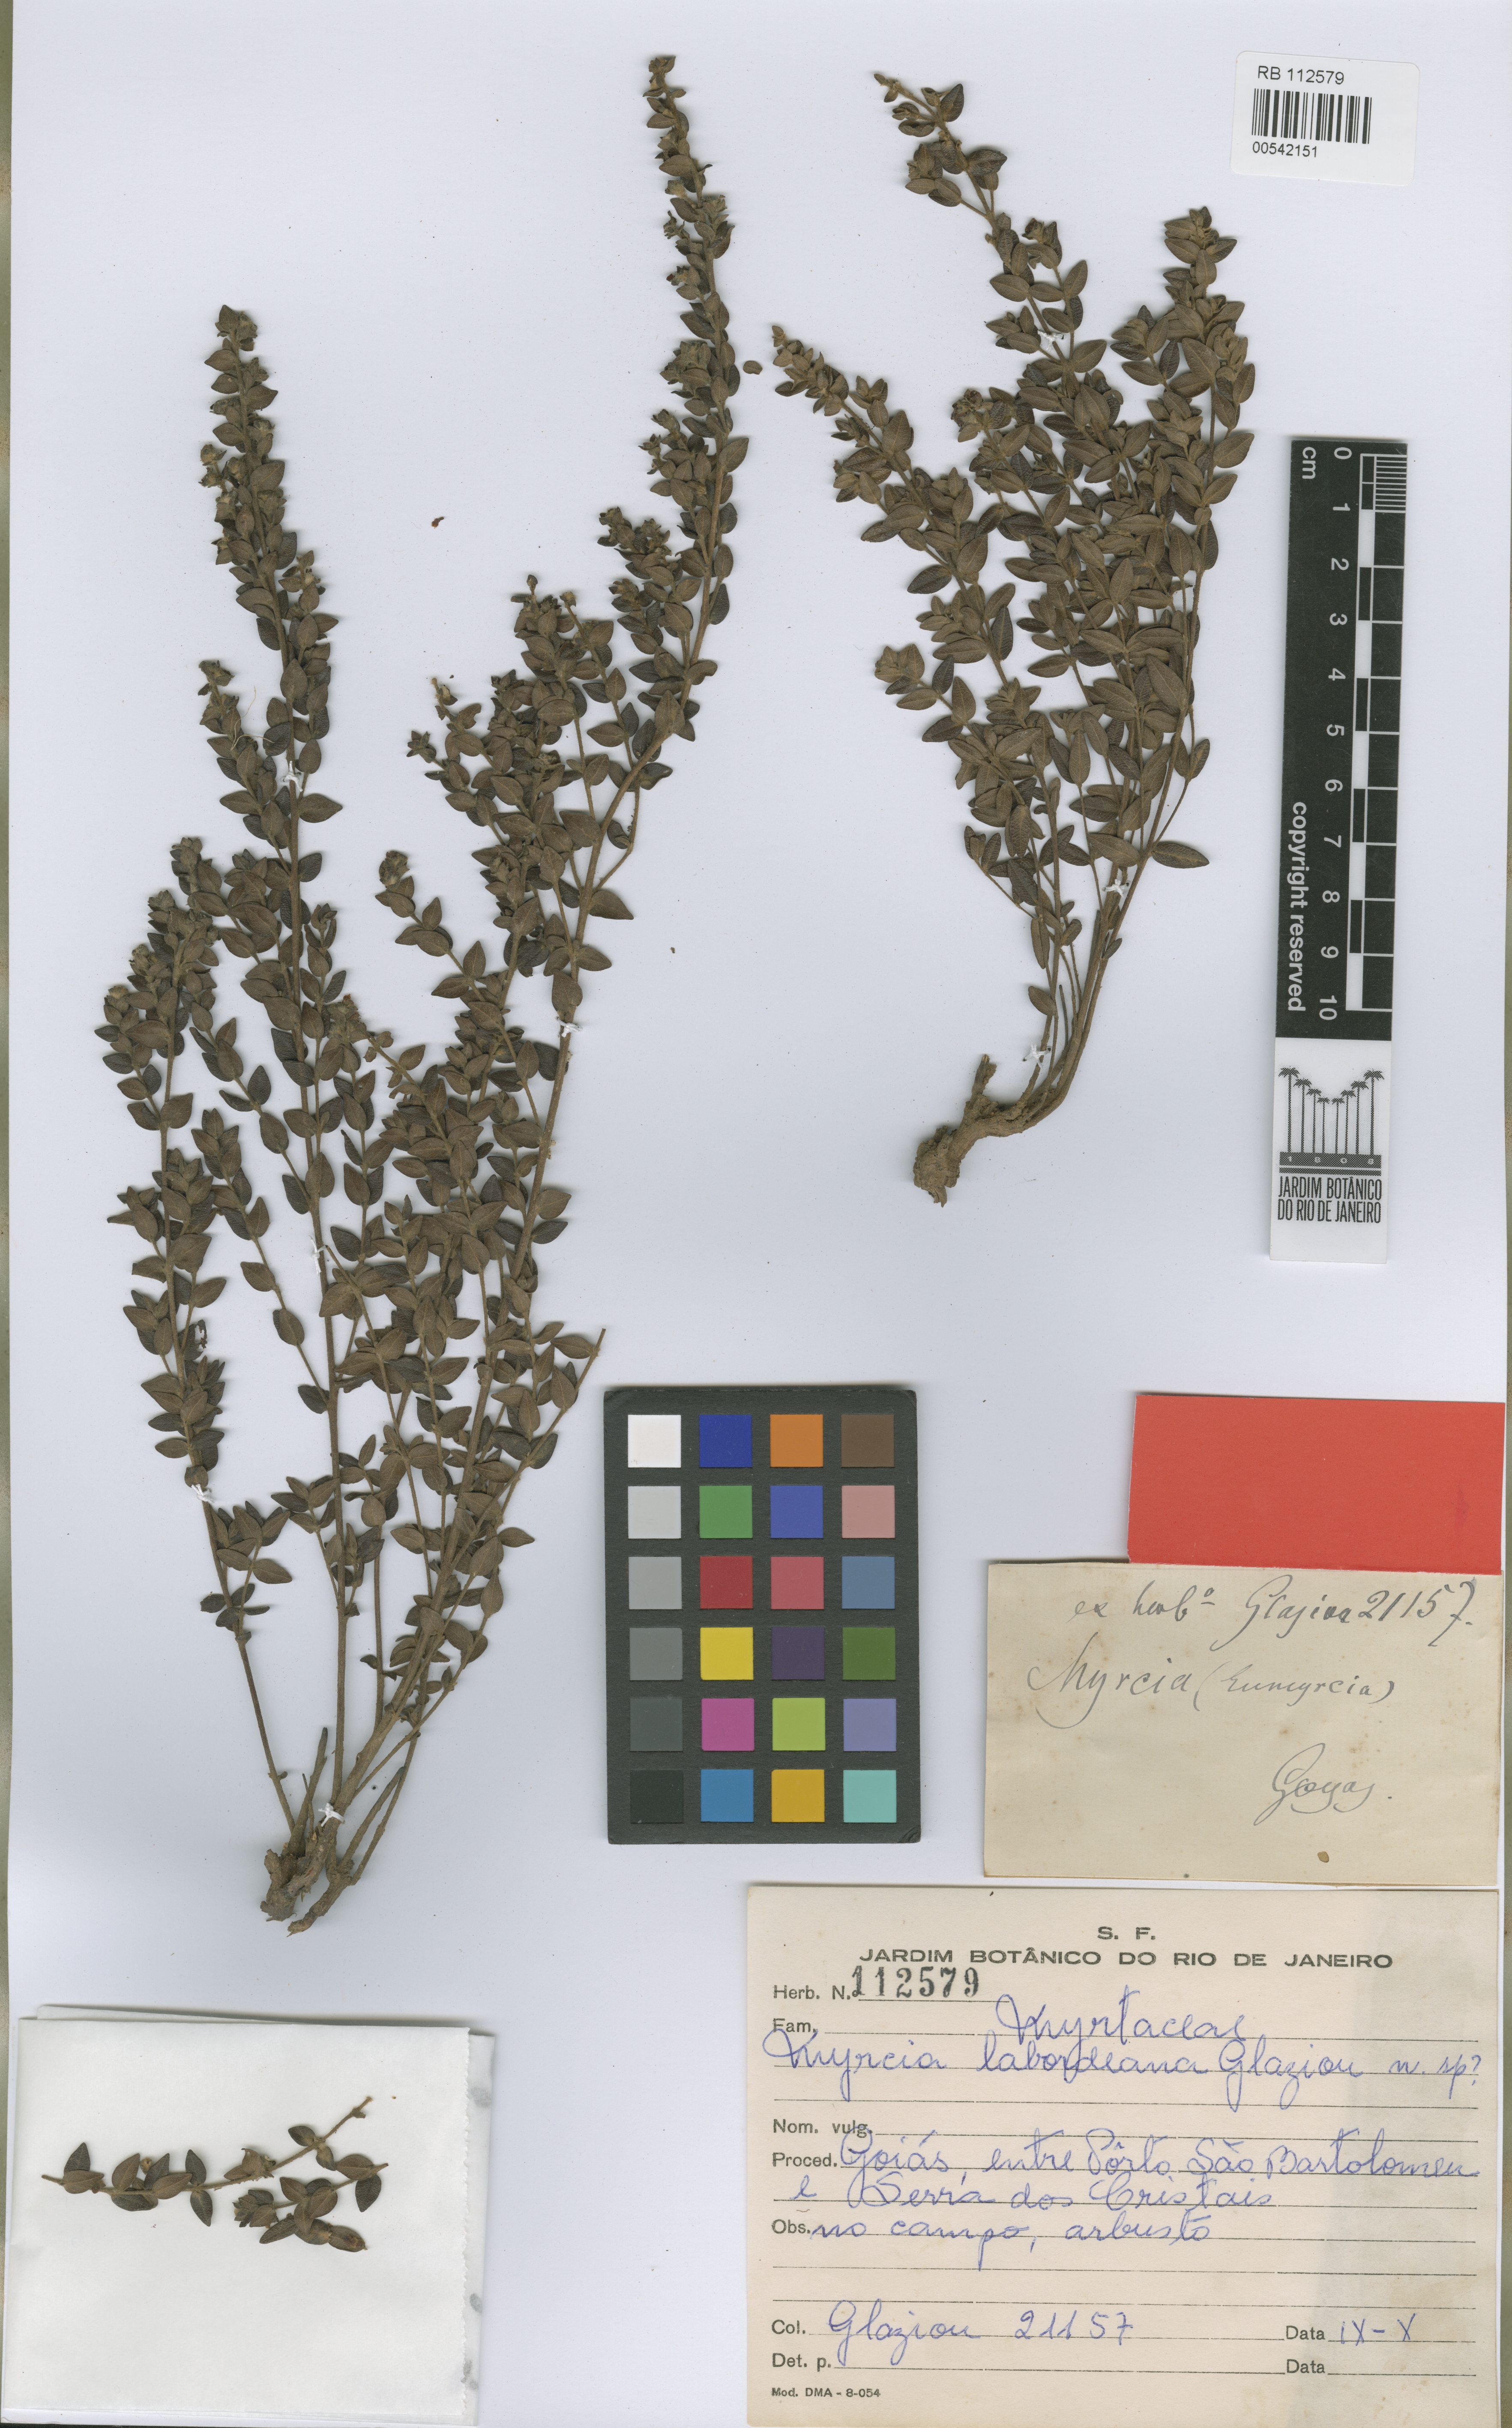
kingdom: Plantae
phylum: Tracheophyta
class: Magnoliopsida
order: Myrtales
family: Myrtaceae
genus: Myrcia
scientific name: Myrcia labordeana
